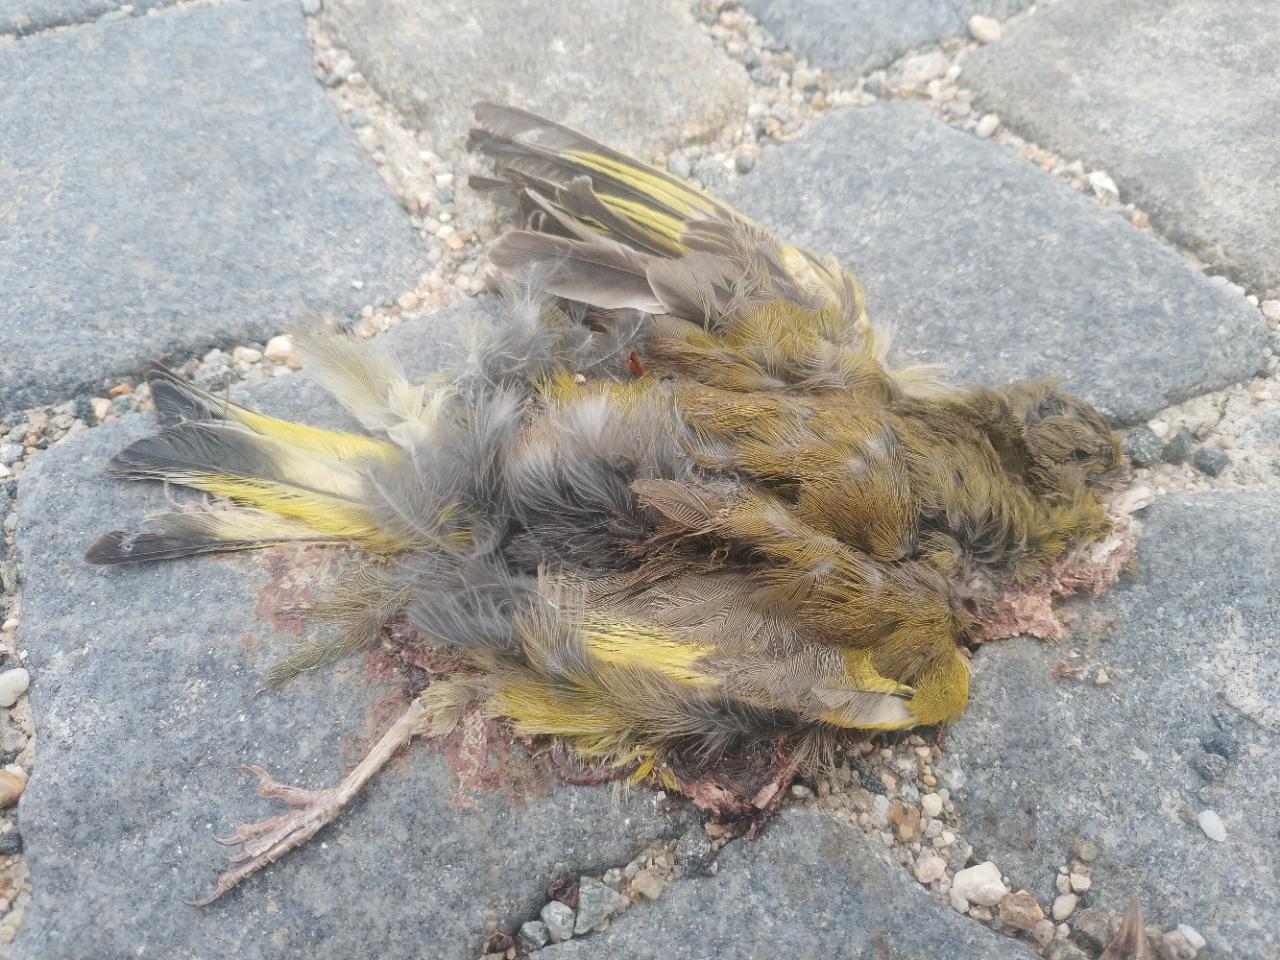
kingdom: Plantae
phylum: Tracheophyta
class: Liliopsida
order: Poales
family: Poaceae
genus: Chloris
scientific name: Chloris chloris
